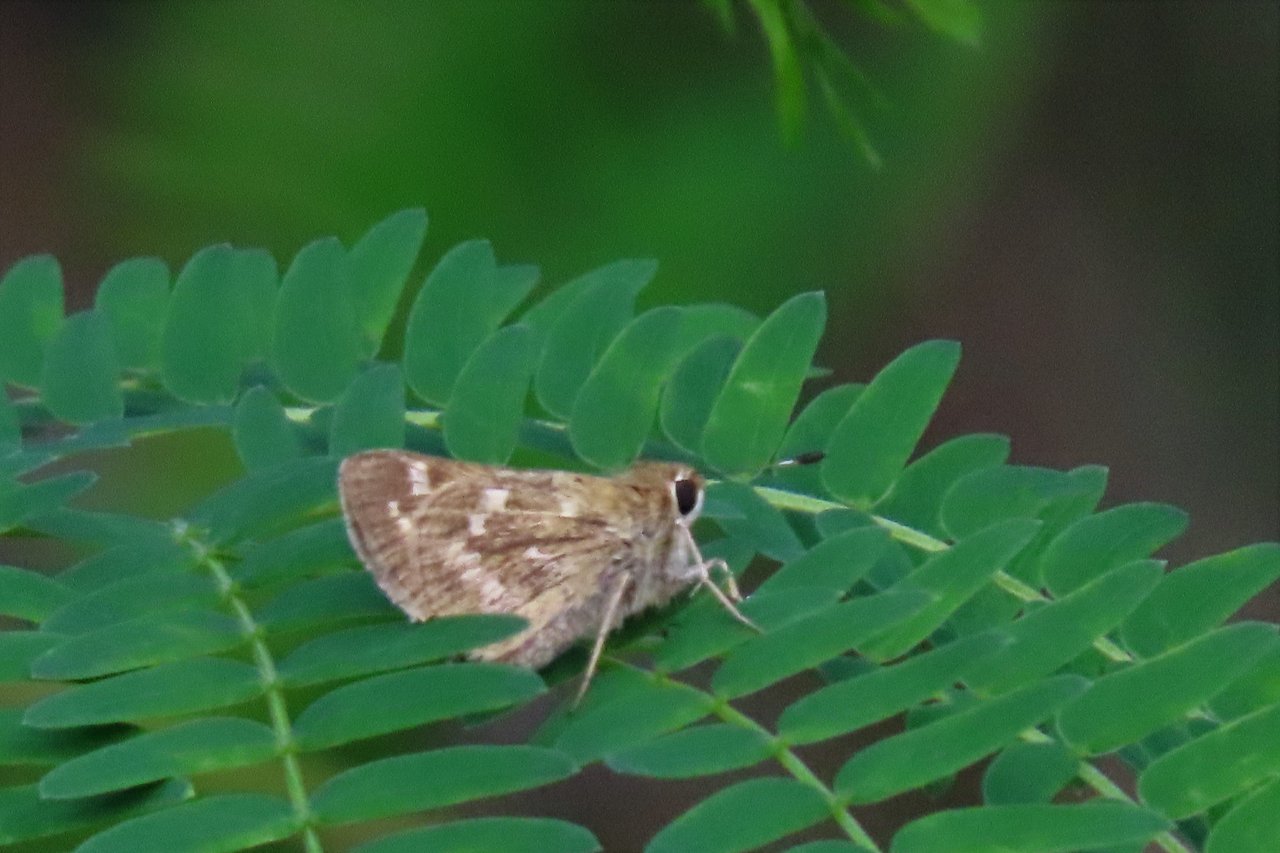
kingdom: Animalia
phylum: Arthropoda
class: Insecta
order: Lepidoptera
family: Hesperiidae
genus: Atalopedes
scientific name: Atalopedes campestris
